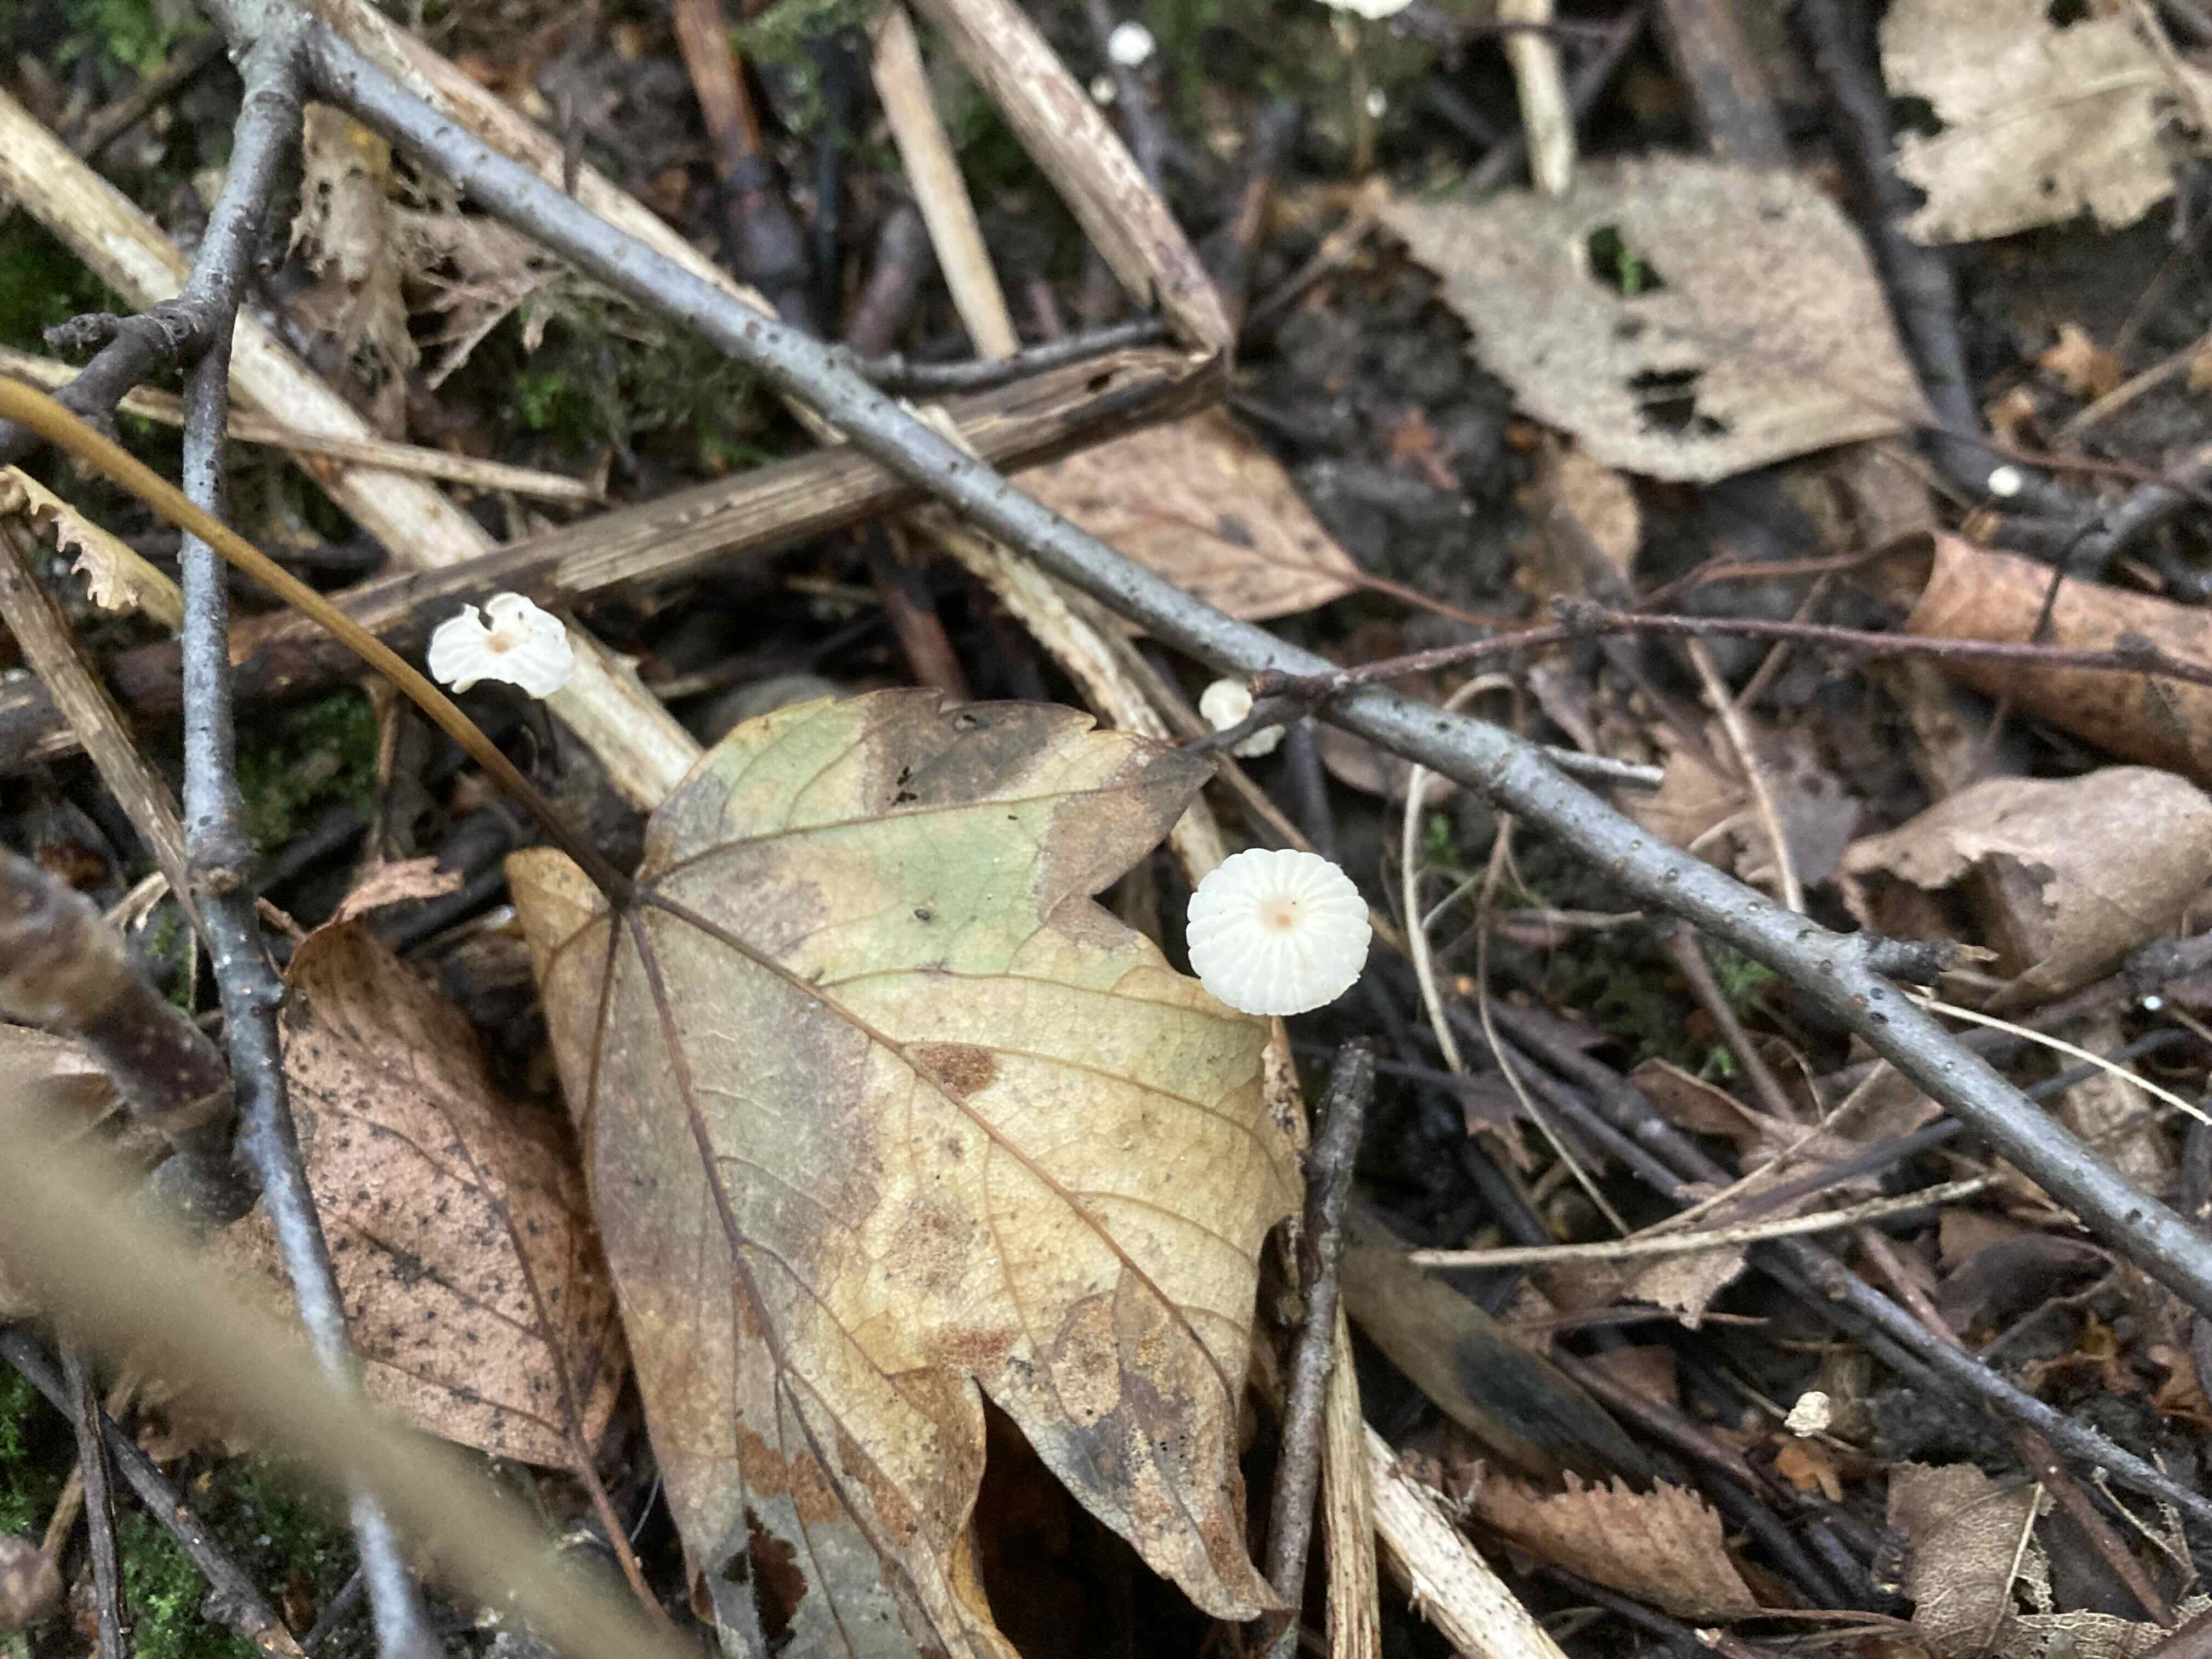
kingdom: Fungi
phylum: Basidiomycota
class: Agaricomycetes
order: Agaricales
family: Marasmiaceae
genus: Marasmius
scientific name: Marasmius rotula
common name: hjul-bruskhat
